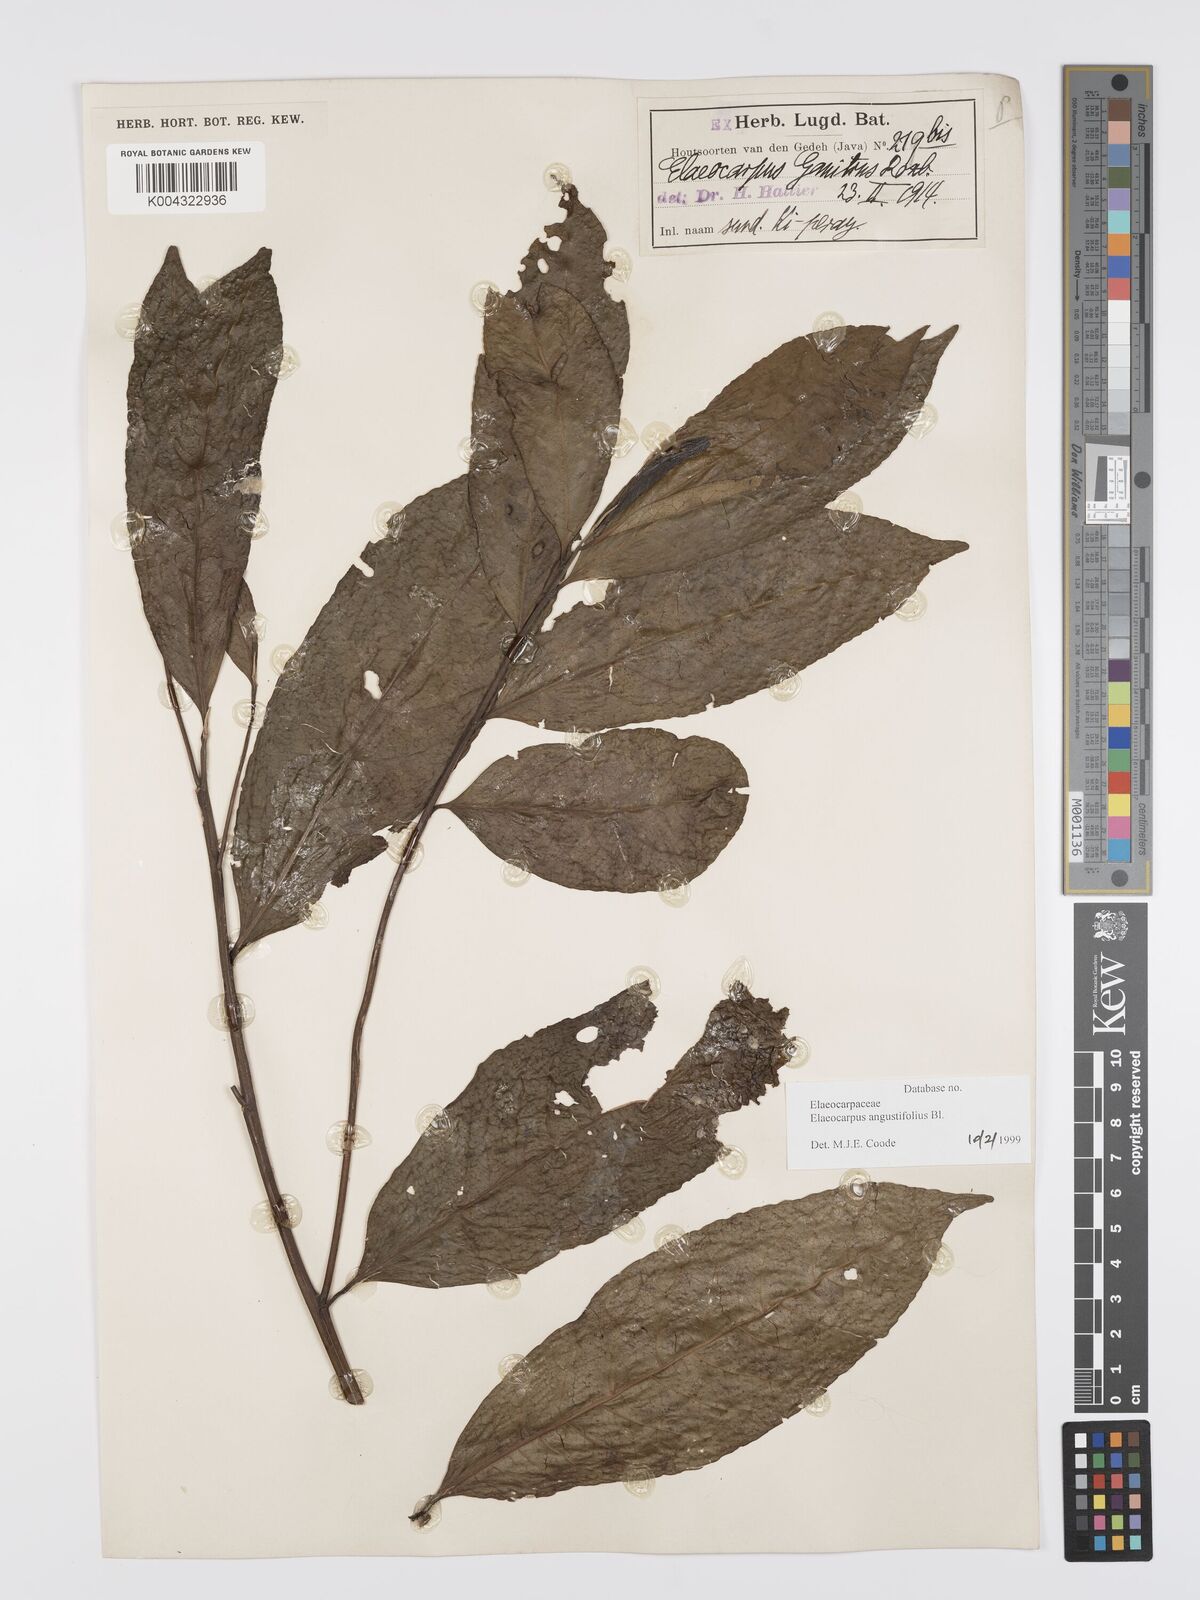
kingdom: Plantae
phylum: Tracheophyta
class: Magnoliopsida
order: Oxalidales
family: Elaeocarpaceae
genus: Elaeocarpus
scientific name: Elaeocarpus sphaericus
